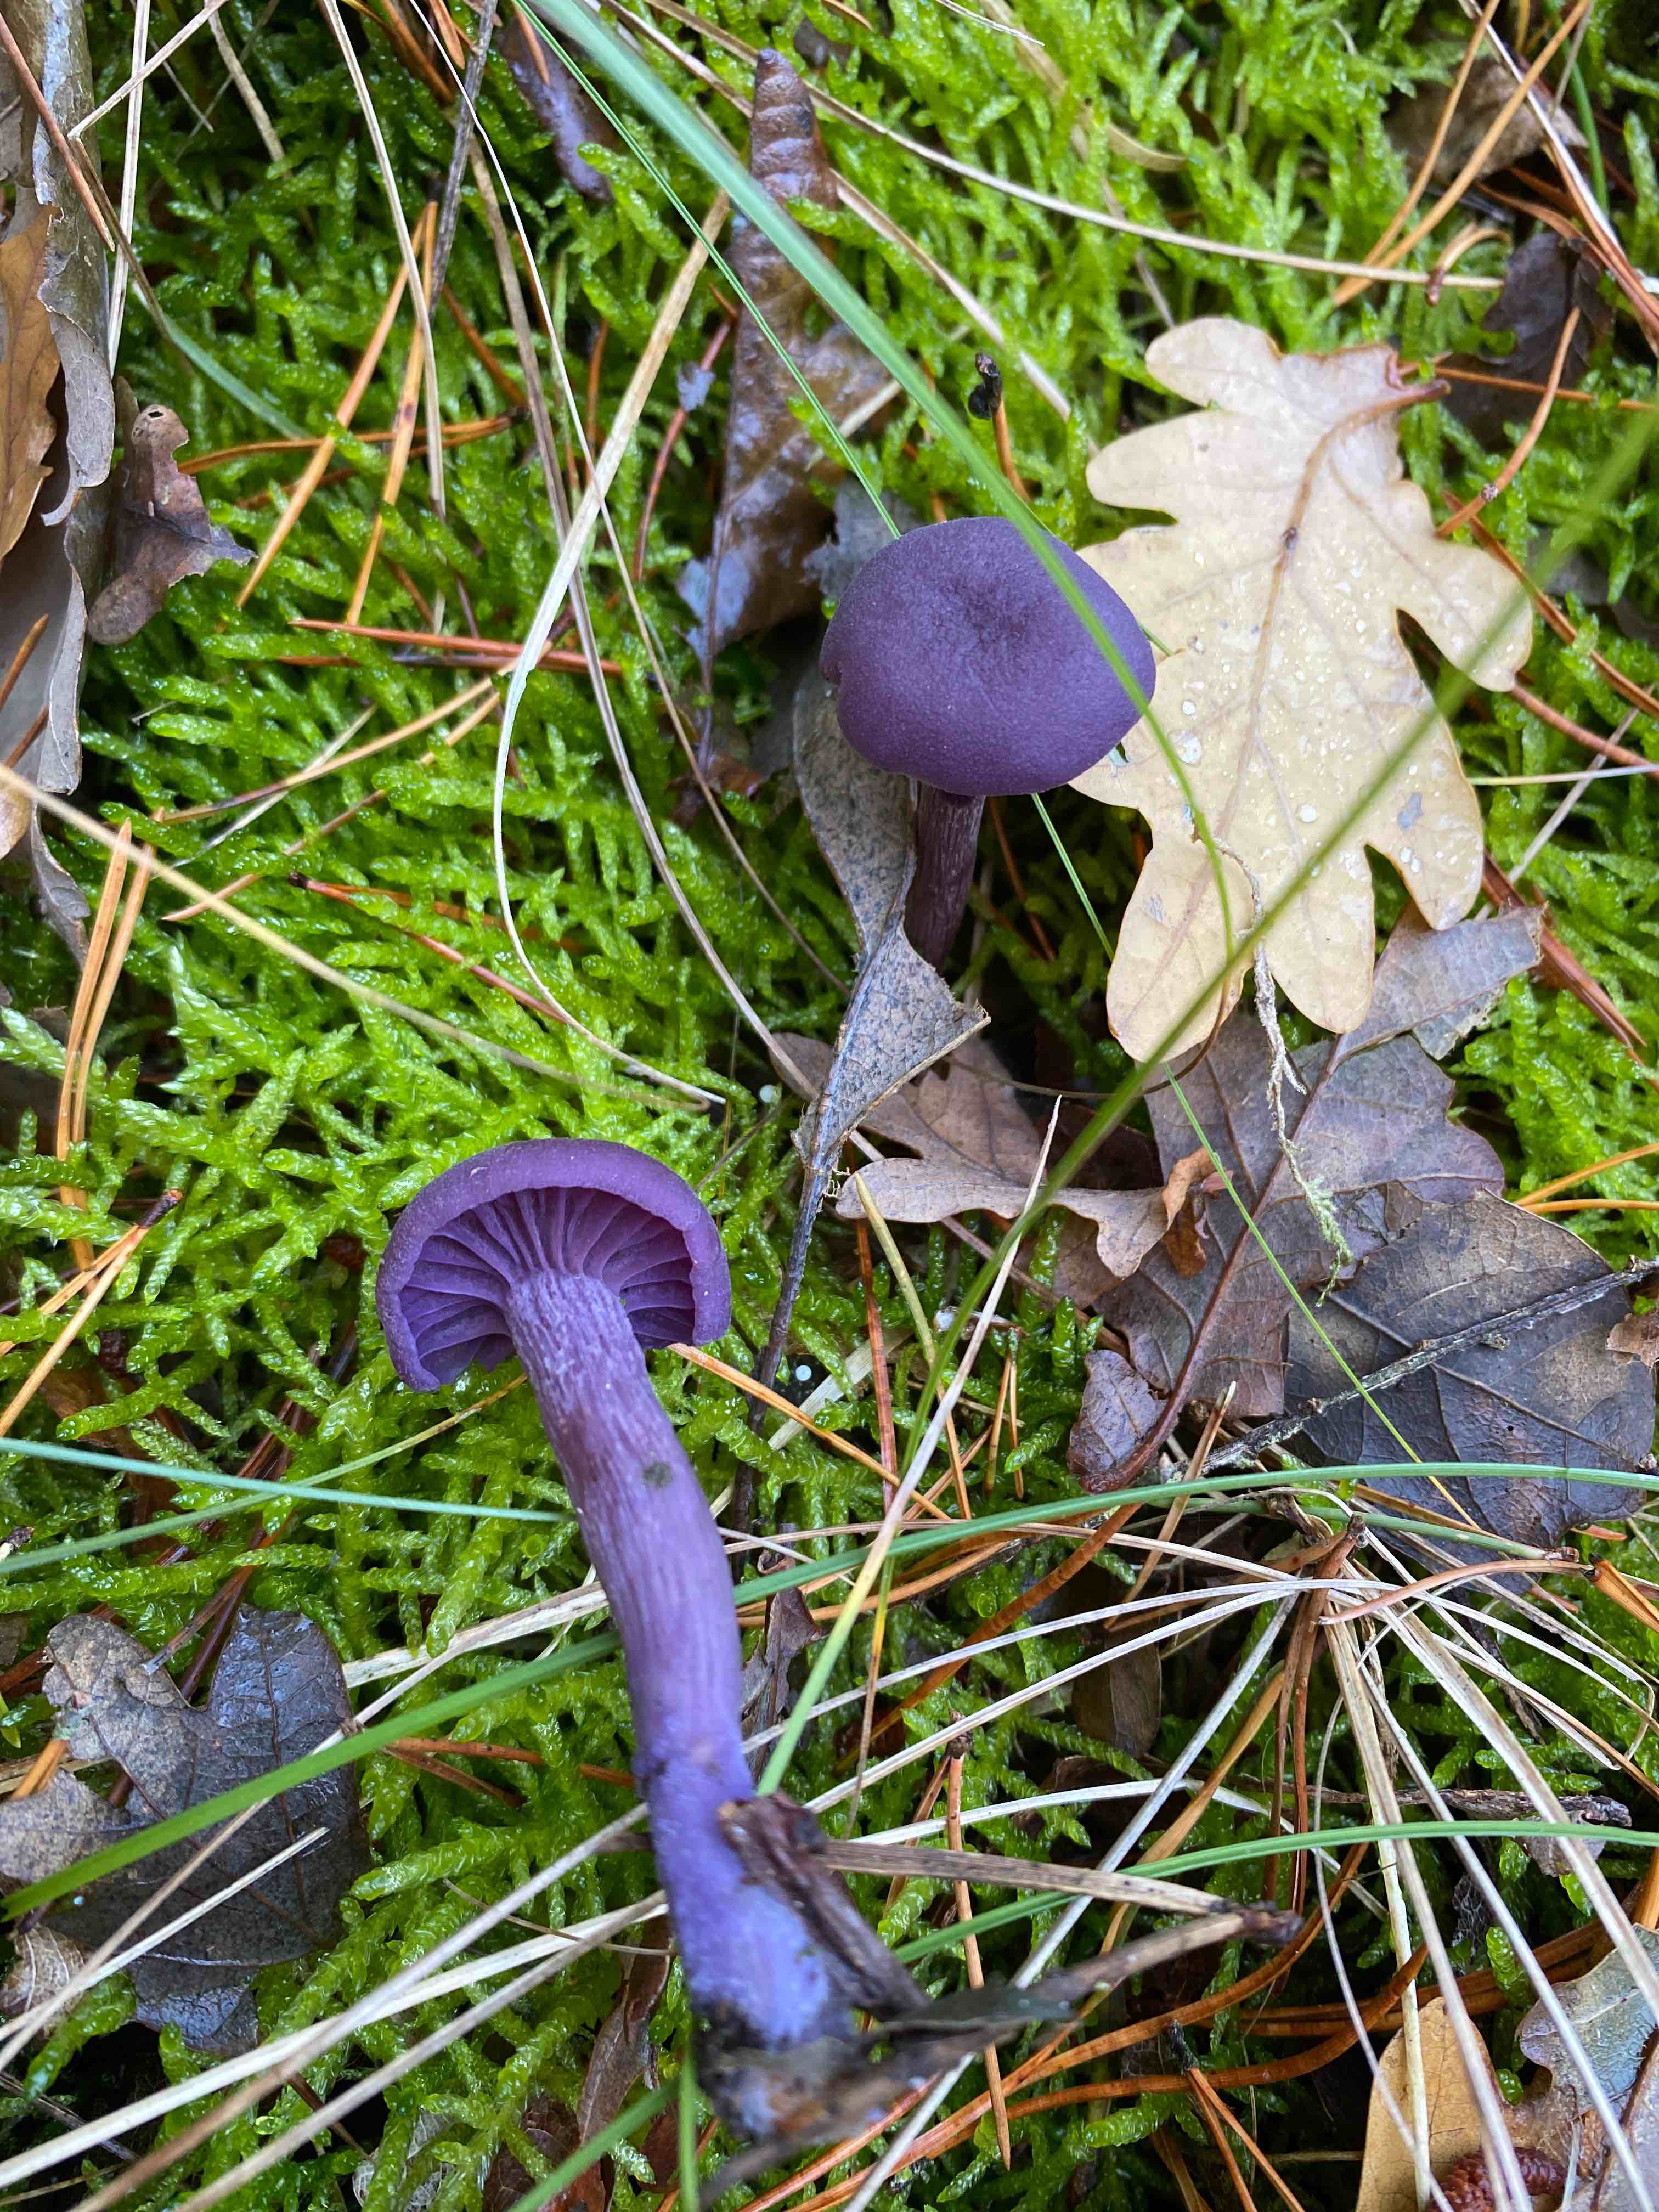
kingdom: Fungi
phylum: Basidiomycota
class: Agaricomycetes
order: Agaricales
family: Hydnangiaceae
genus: Laccaria
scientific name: Laccaria amethystina
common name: violet ametysthat
